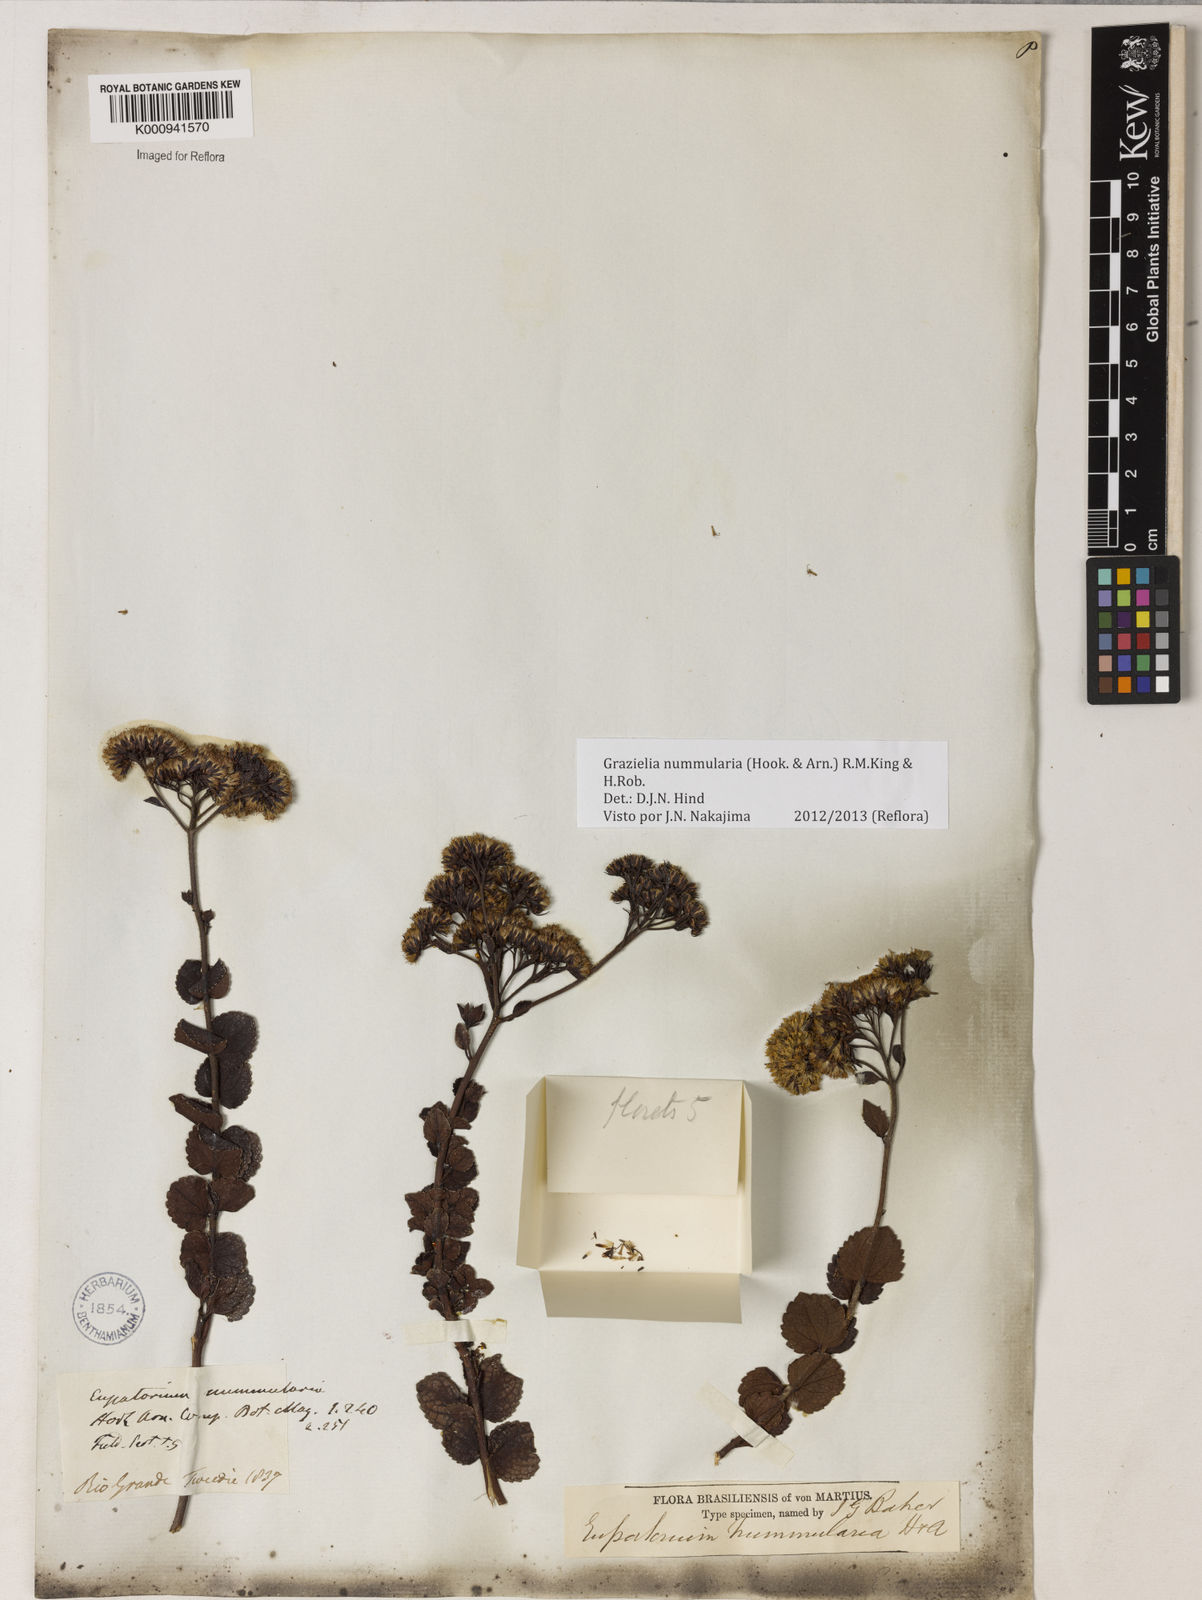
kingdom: Plantae
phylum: Tracheophyta
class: Magnoliopsida
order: Asterales
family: Asteraceae
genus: Grazielia
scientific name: Grazielia nummularia
